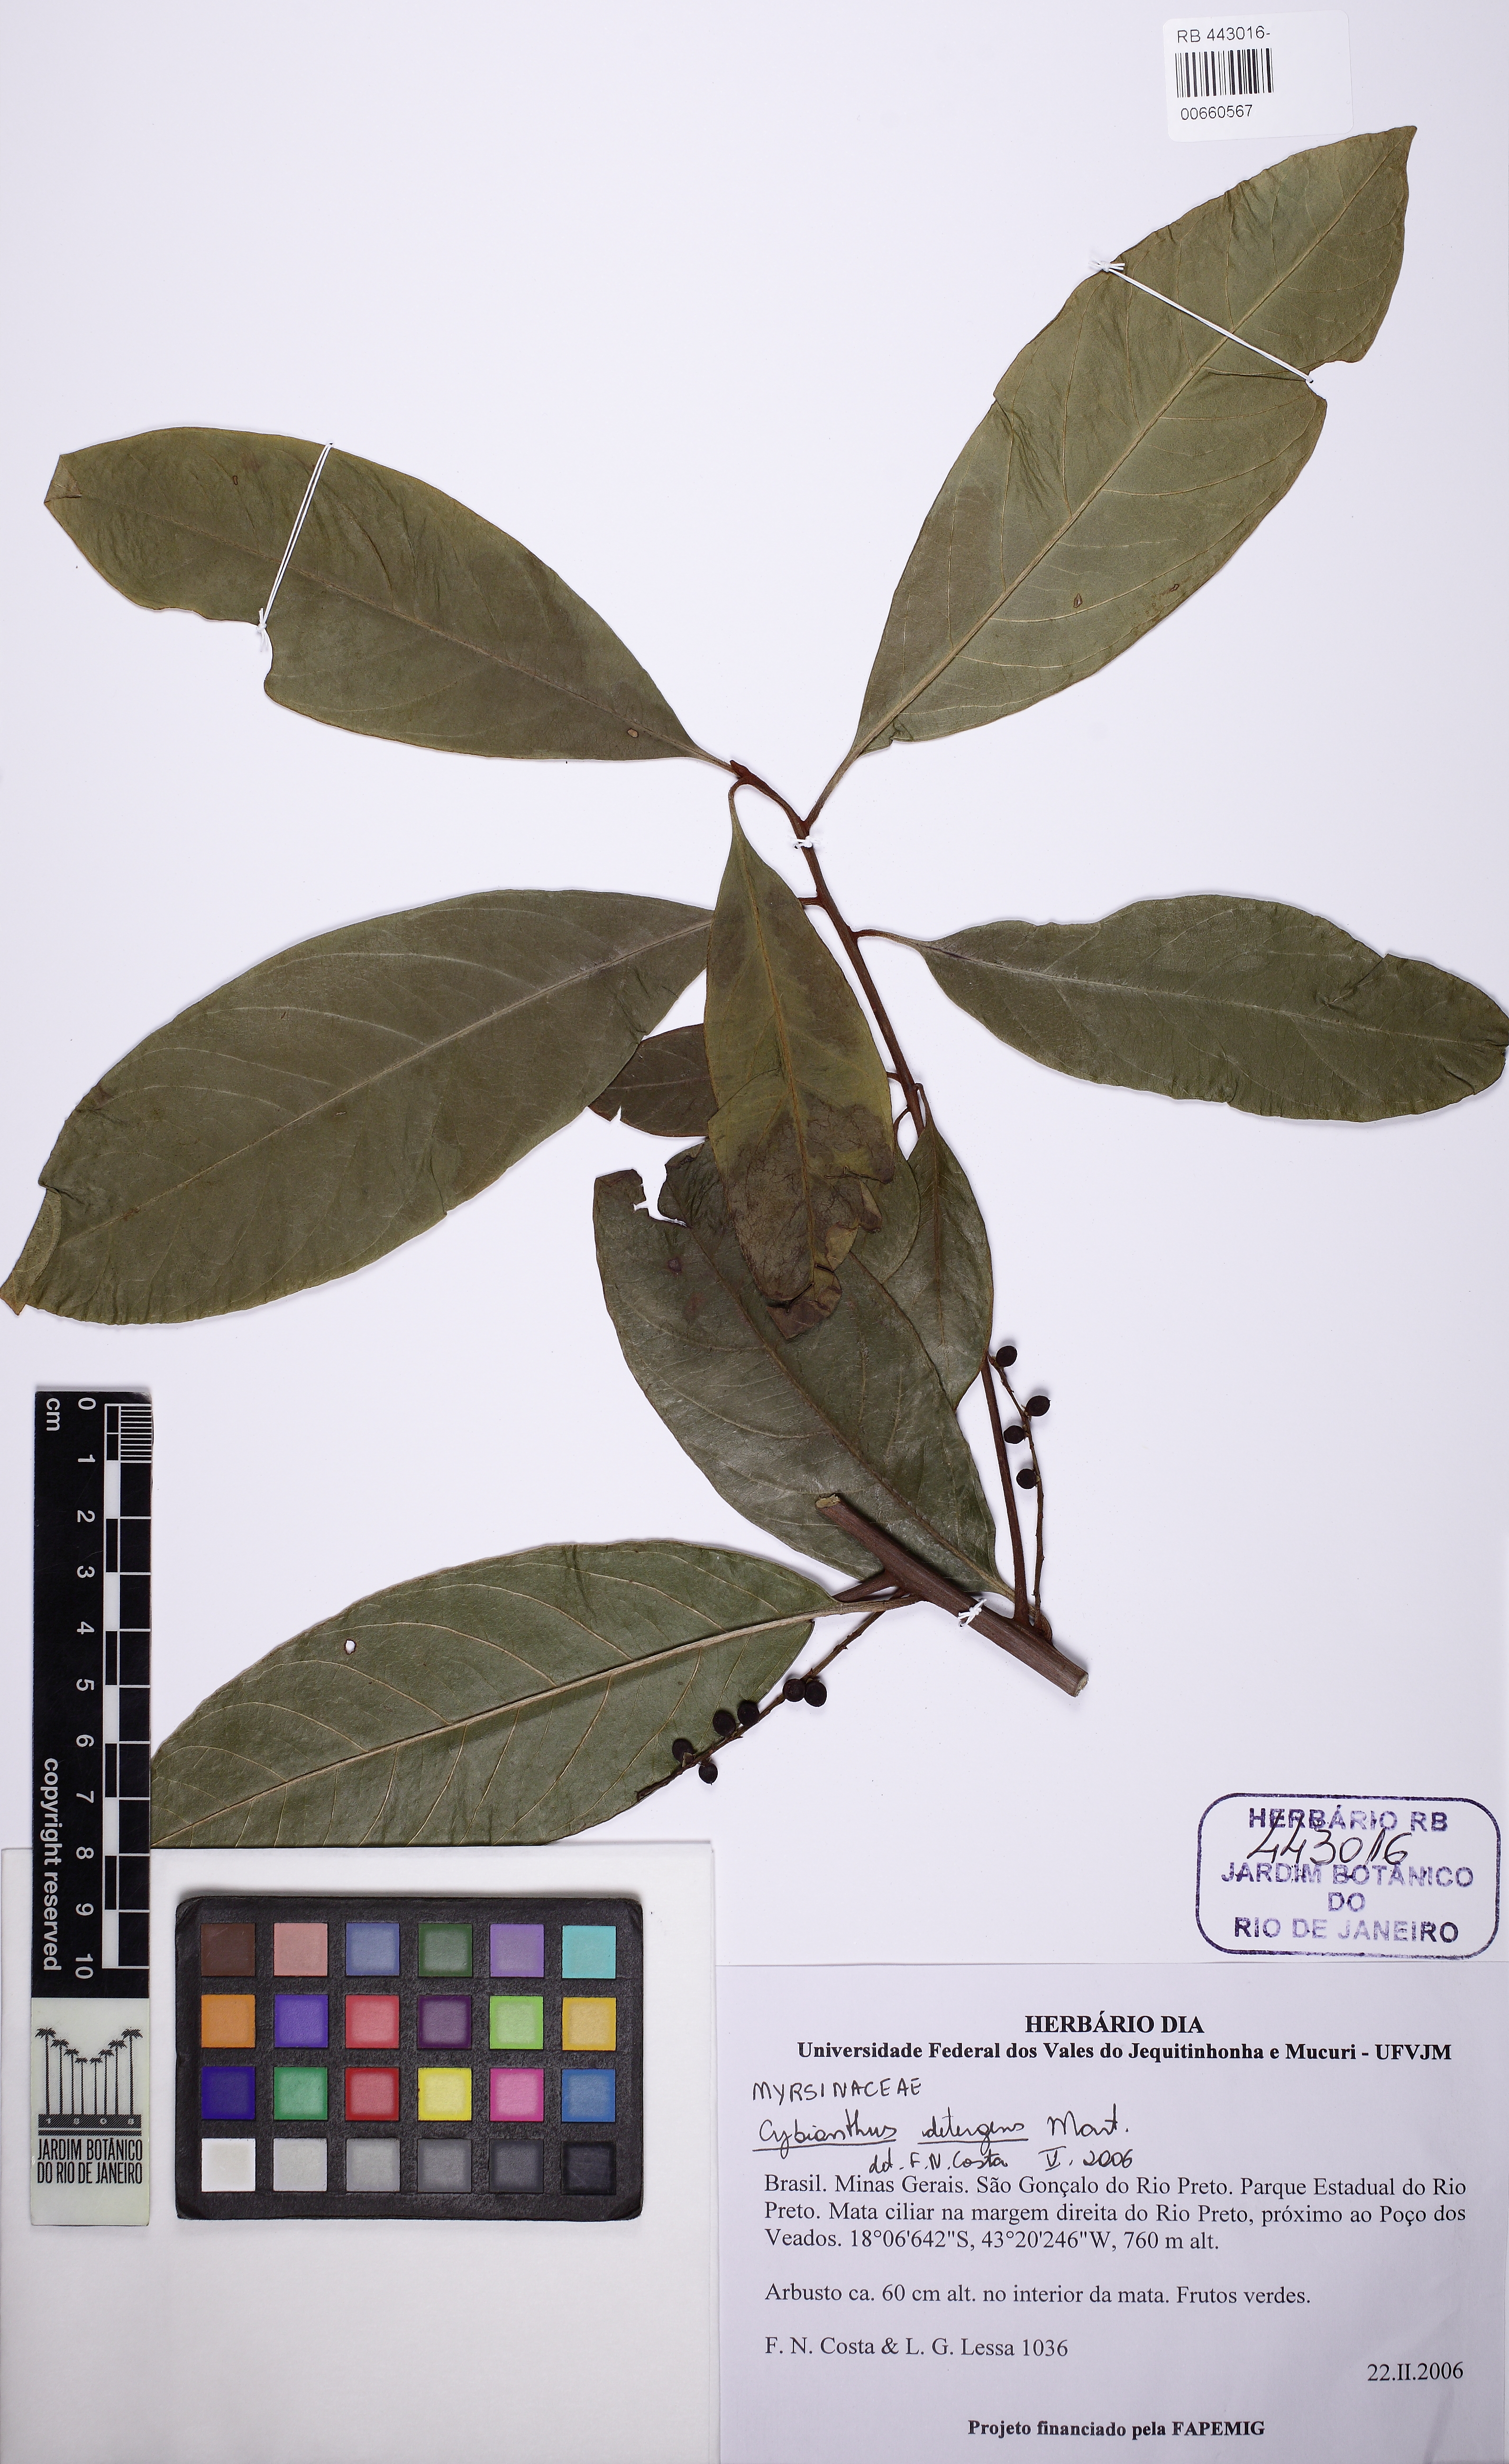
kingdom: Plantae
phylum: Tracheophyta
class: Magnoliopsida
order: Ericales
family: Primulaceae
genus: Cybianthus
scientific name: Cybianthus detergens
